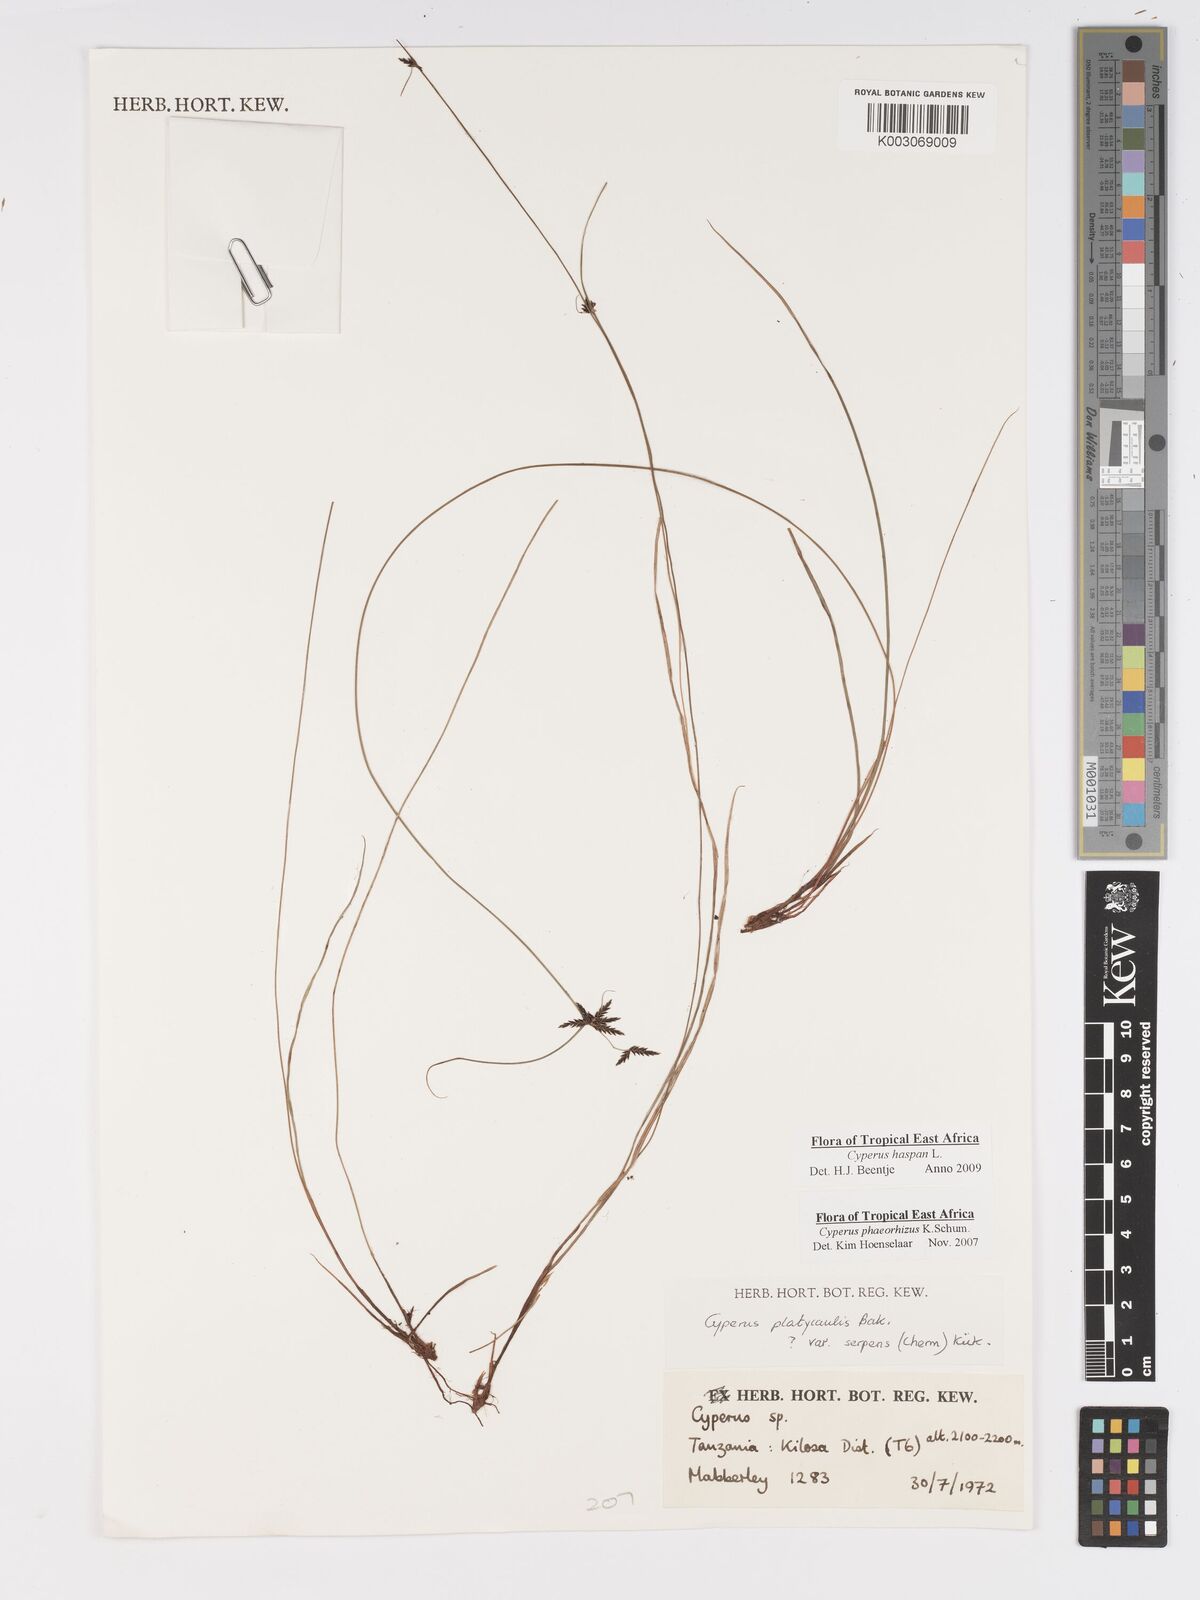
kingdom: Plantae
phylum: Tracheophyta
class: Liliopsida
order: Poales
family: Cyperaceae
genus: Cyperus
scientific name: Cyperus haspan
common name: Haspan flatsedge
